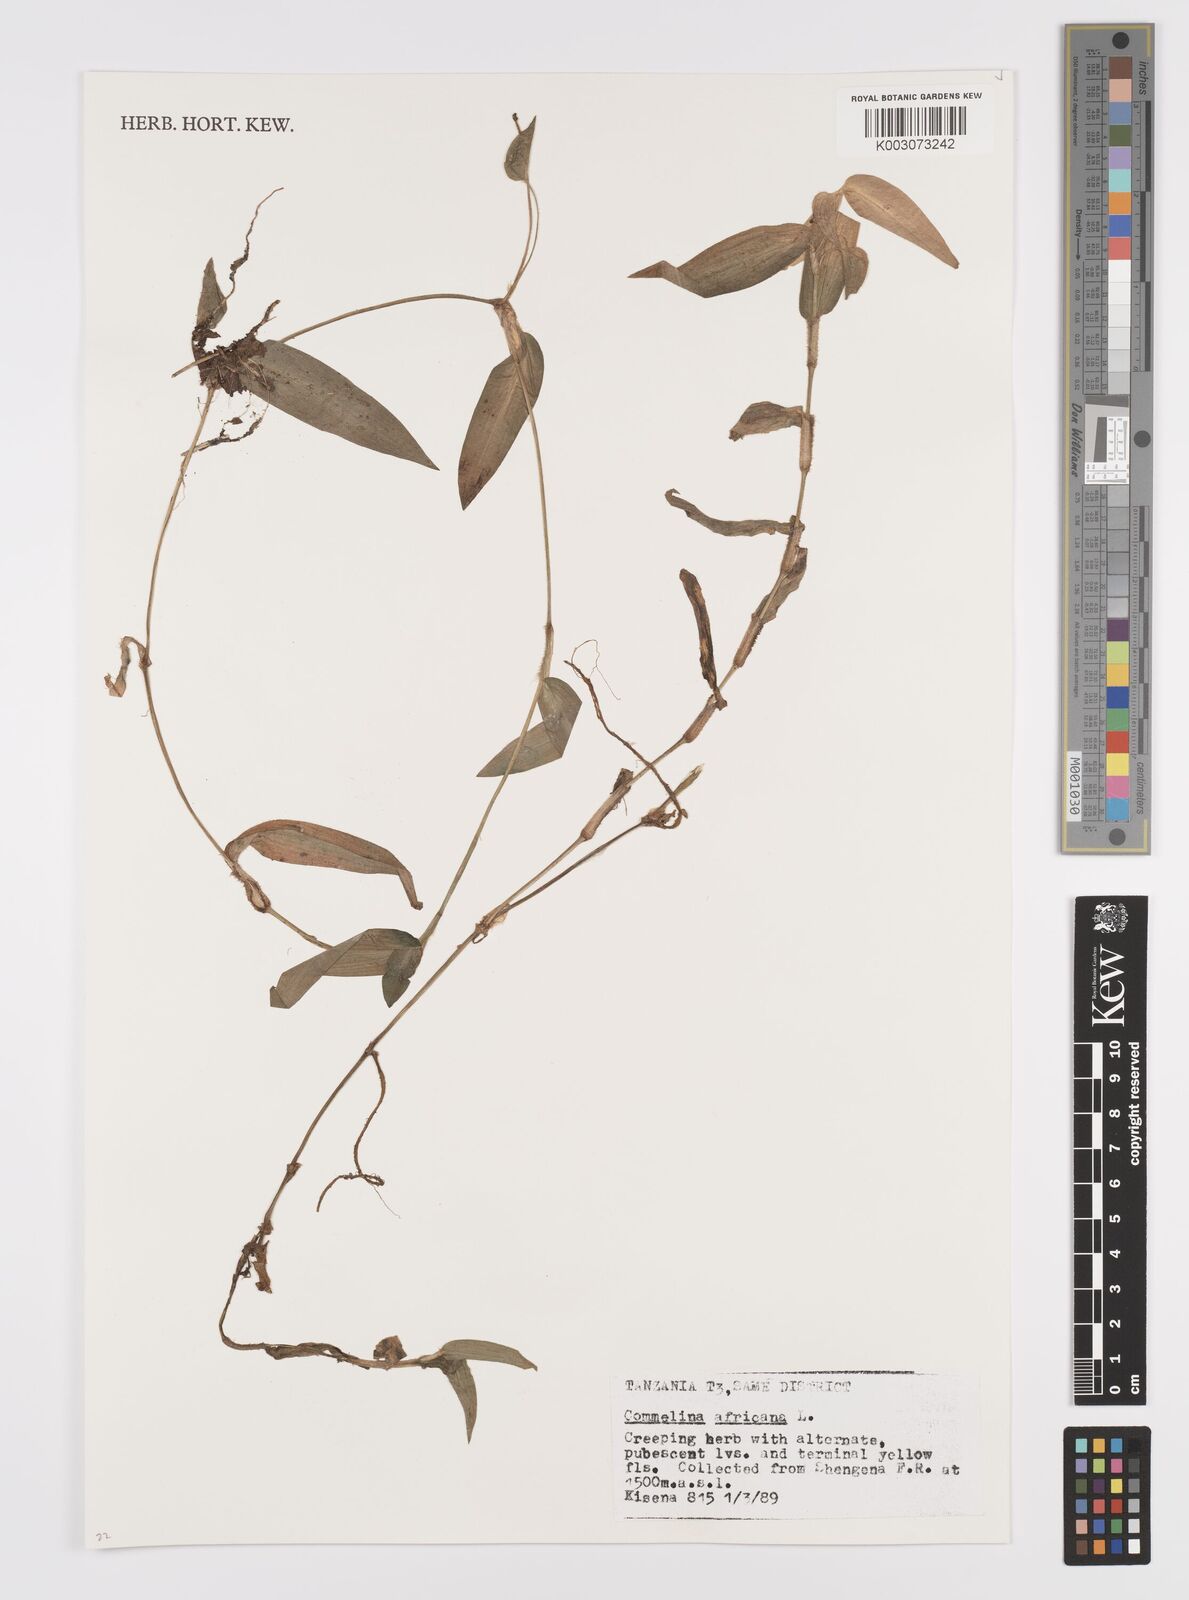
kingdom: Plantae
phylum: Tracheophyta
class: Liliopsida
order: Commelinales
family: Commelinaceae
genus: Commelina
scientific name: Commelina africana
